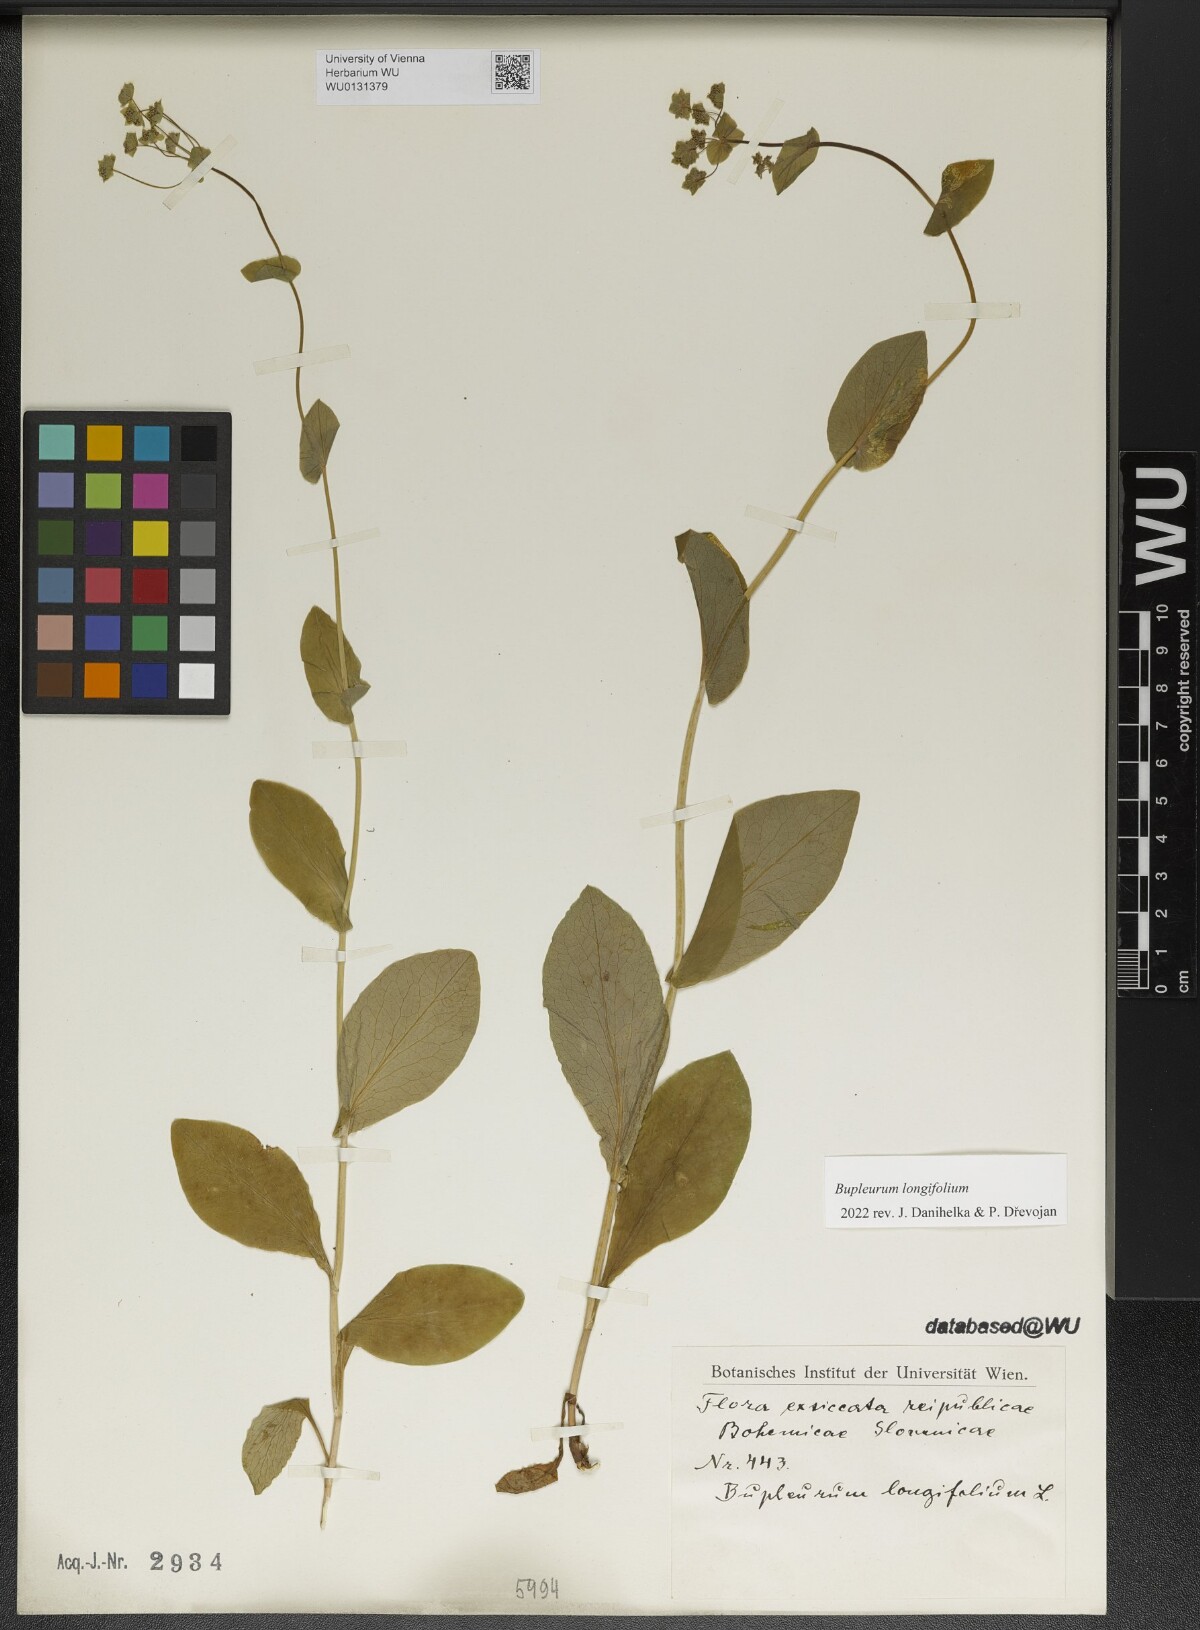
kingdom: Plantae
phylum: Tracheophyta
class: Magnoliopsida
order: Apiales
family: Apiaceae
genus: Bupleurum
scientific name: Bupleurum longifolium
